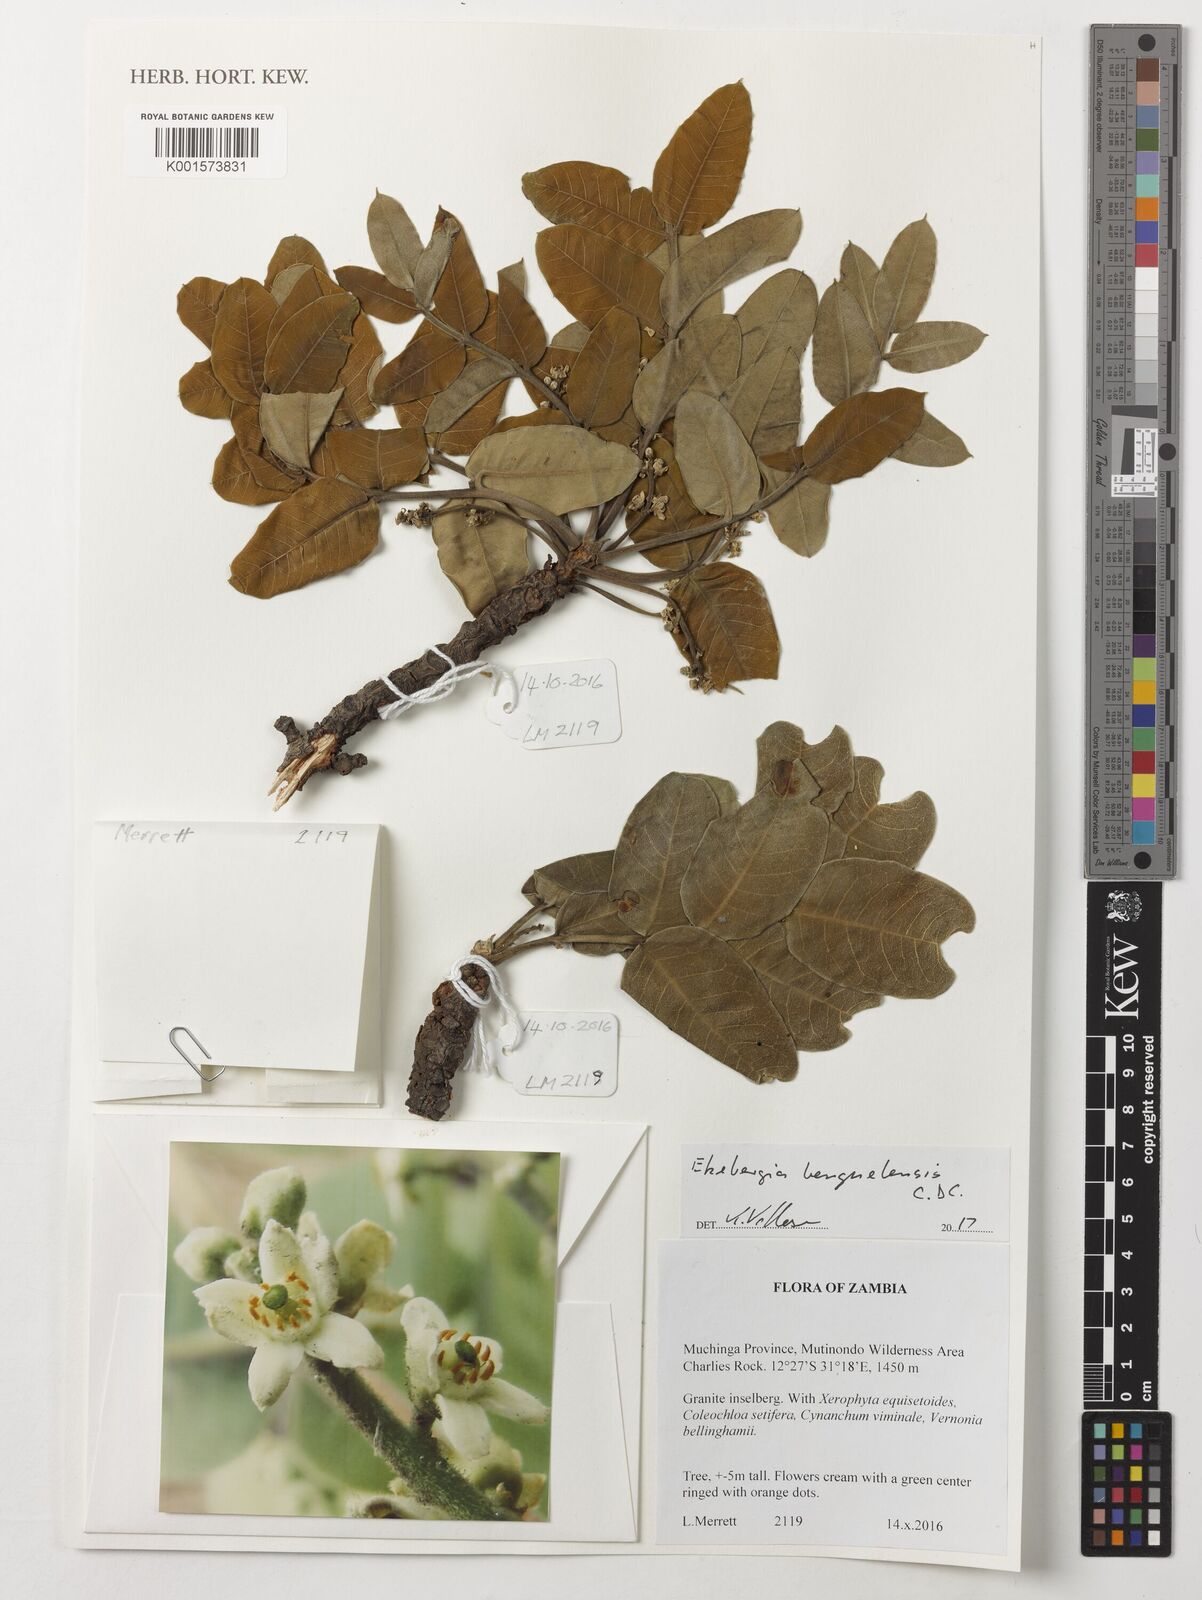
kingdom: Plantae
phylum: Tracheophyta
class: Magnoliopsida
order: Sapindales
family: Meliaceae
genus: Ekebergia
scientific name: Ekebergia benguelensis
